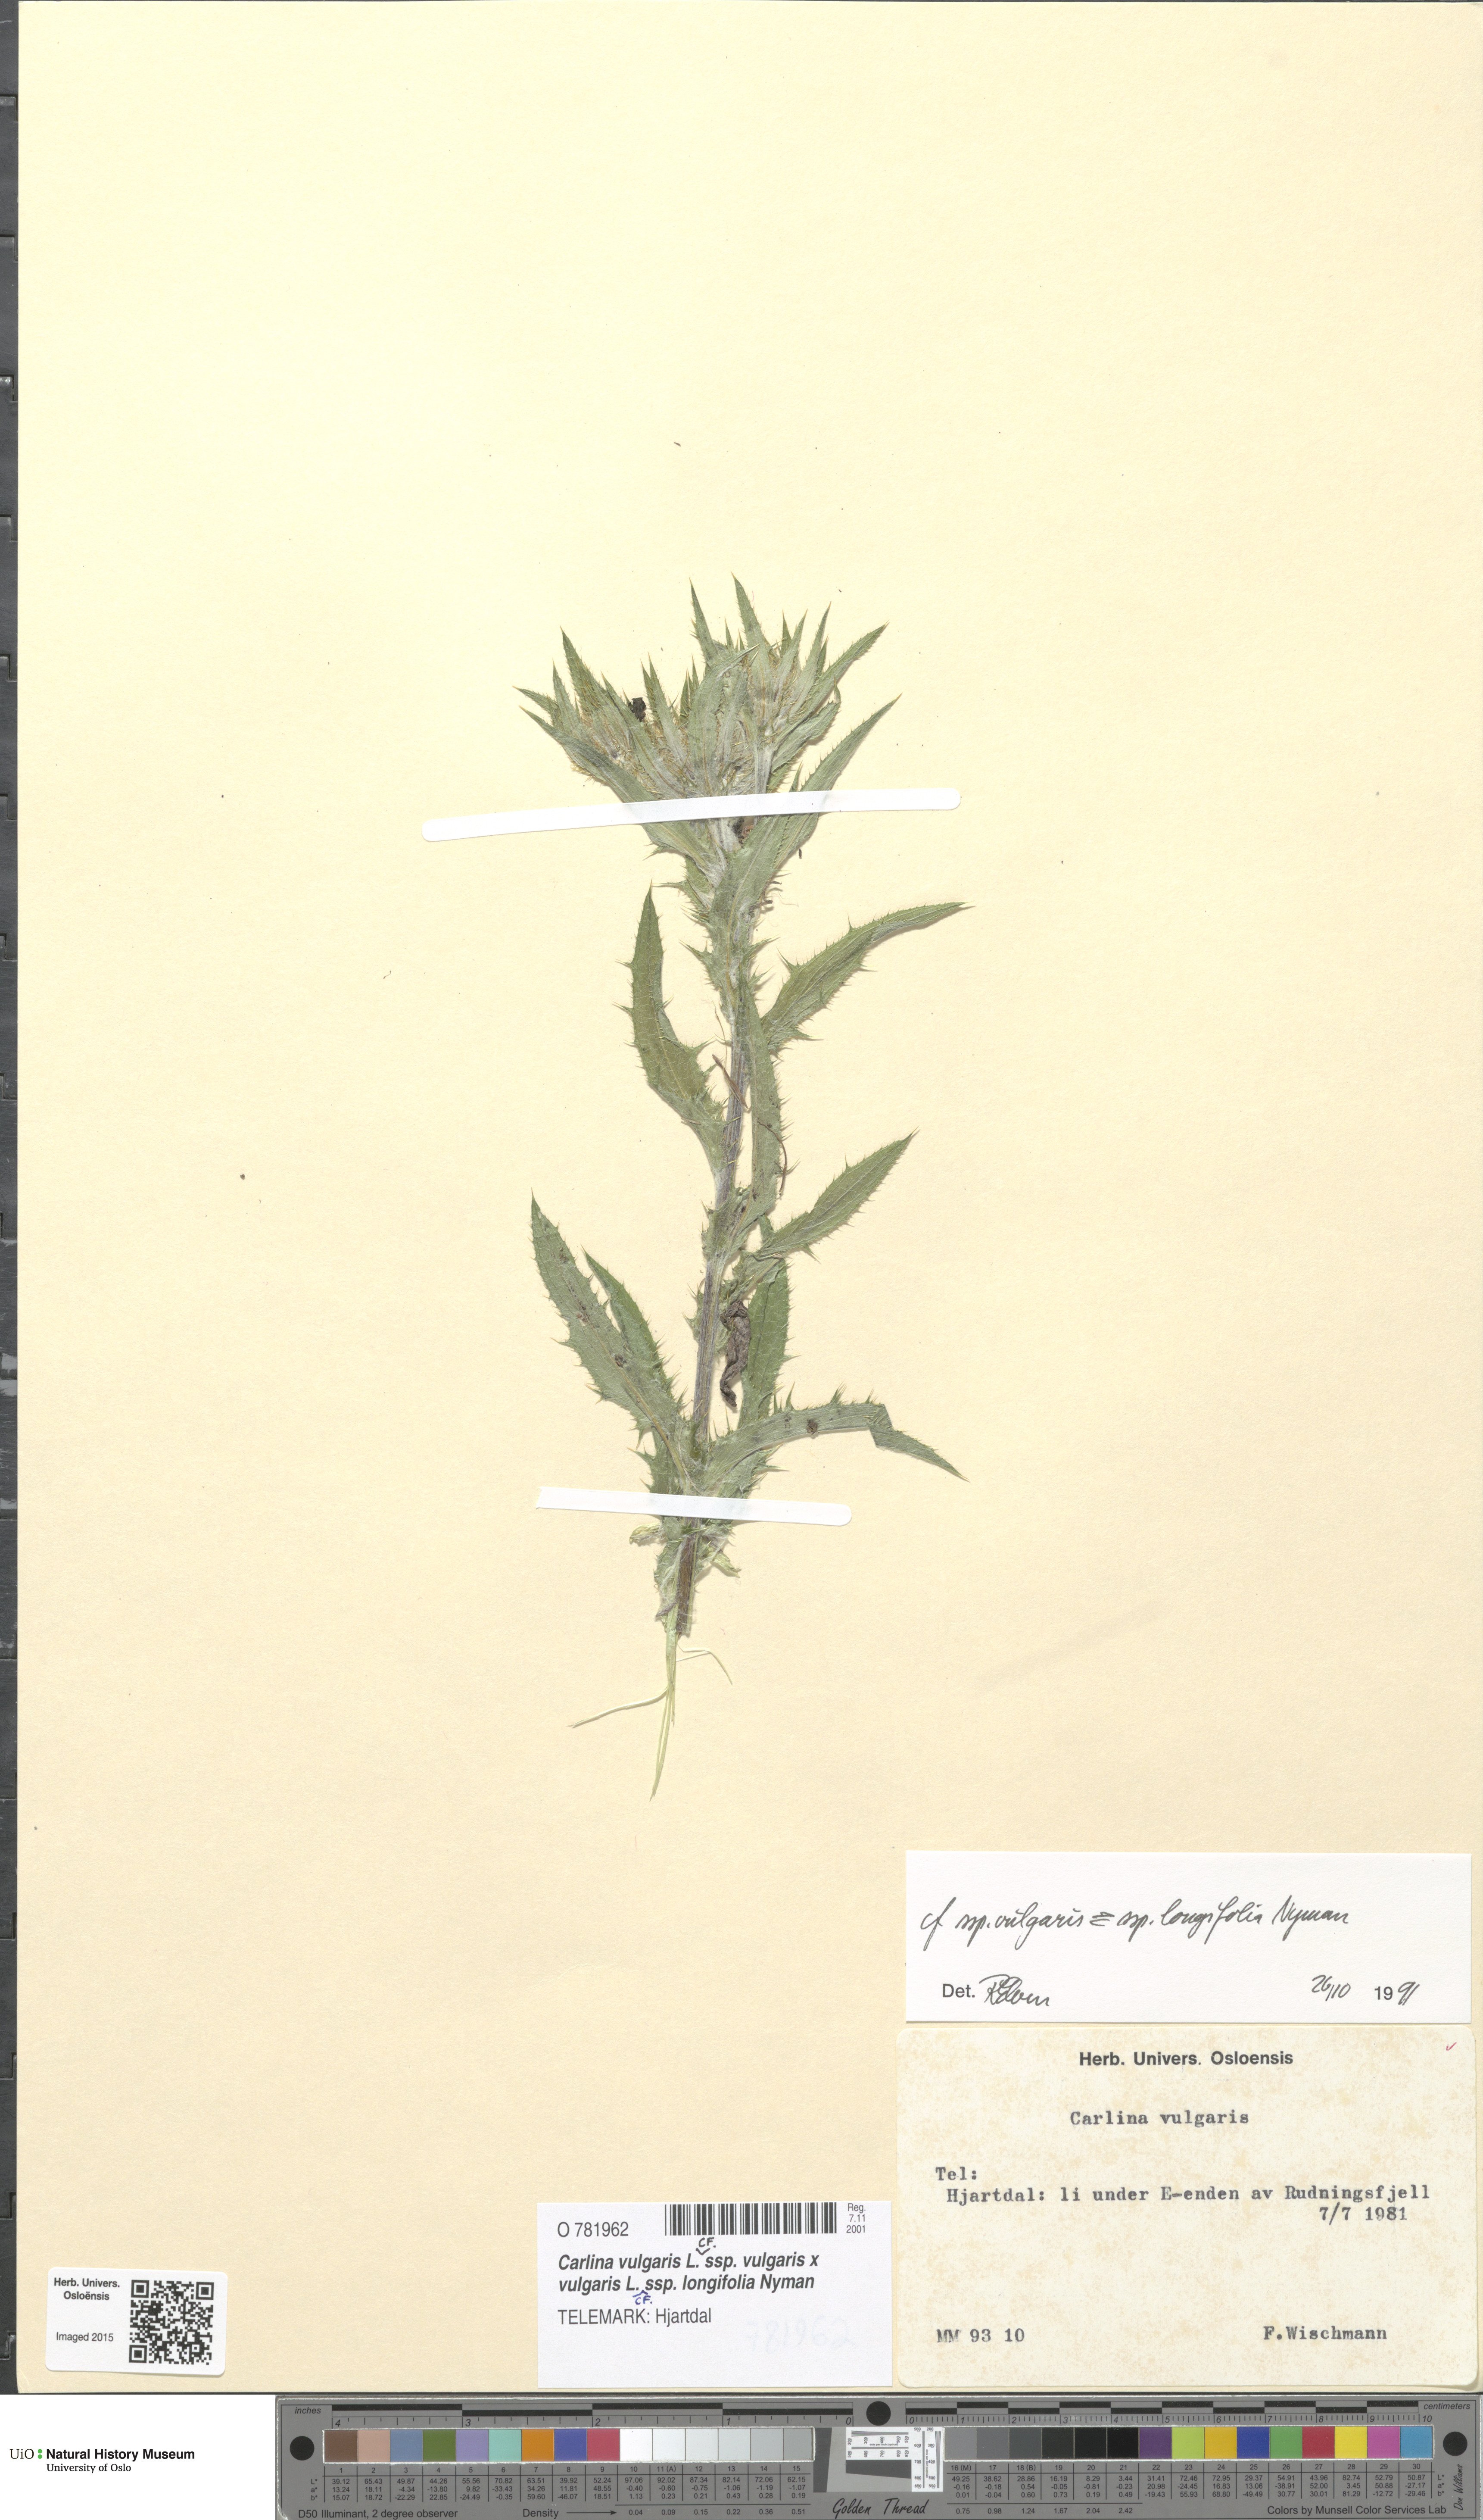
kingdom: Plantae
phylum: Tracheophyta
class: Magnoliopsida
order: Asterales
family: Asteraceae
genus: Carlina
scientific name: Carlina
